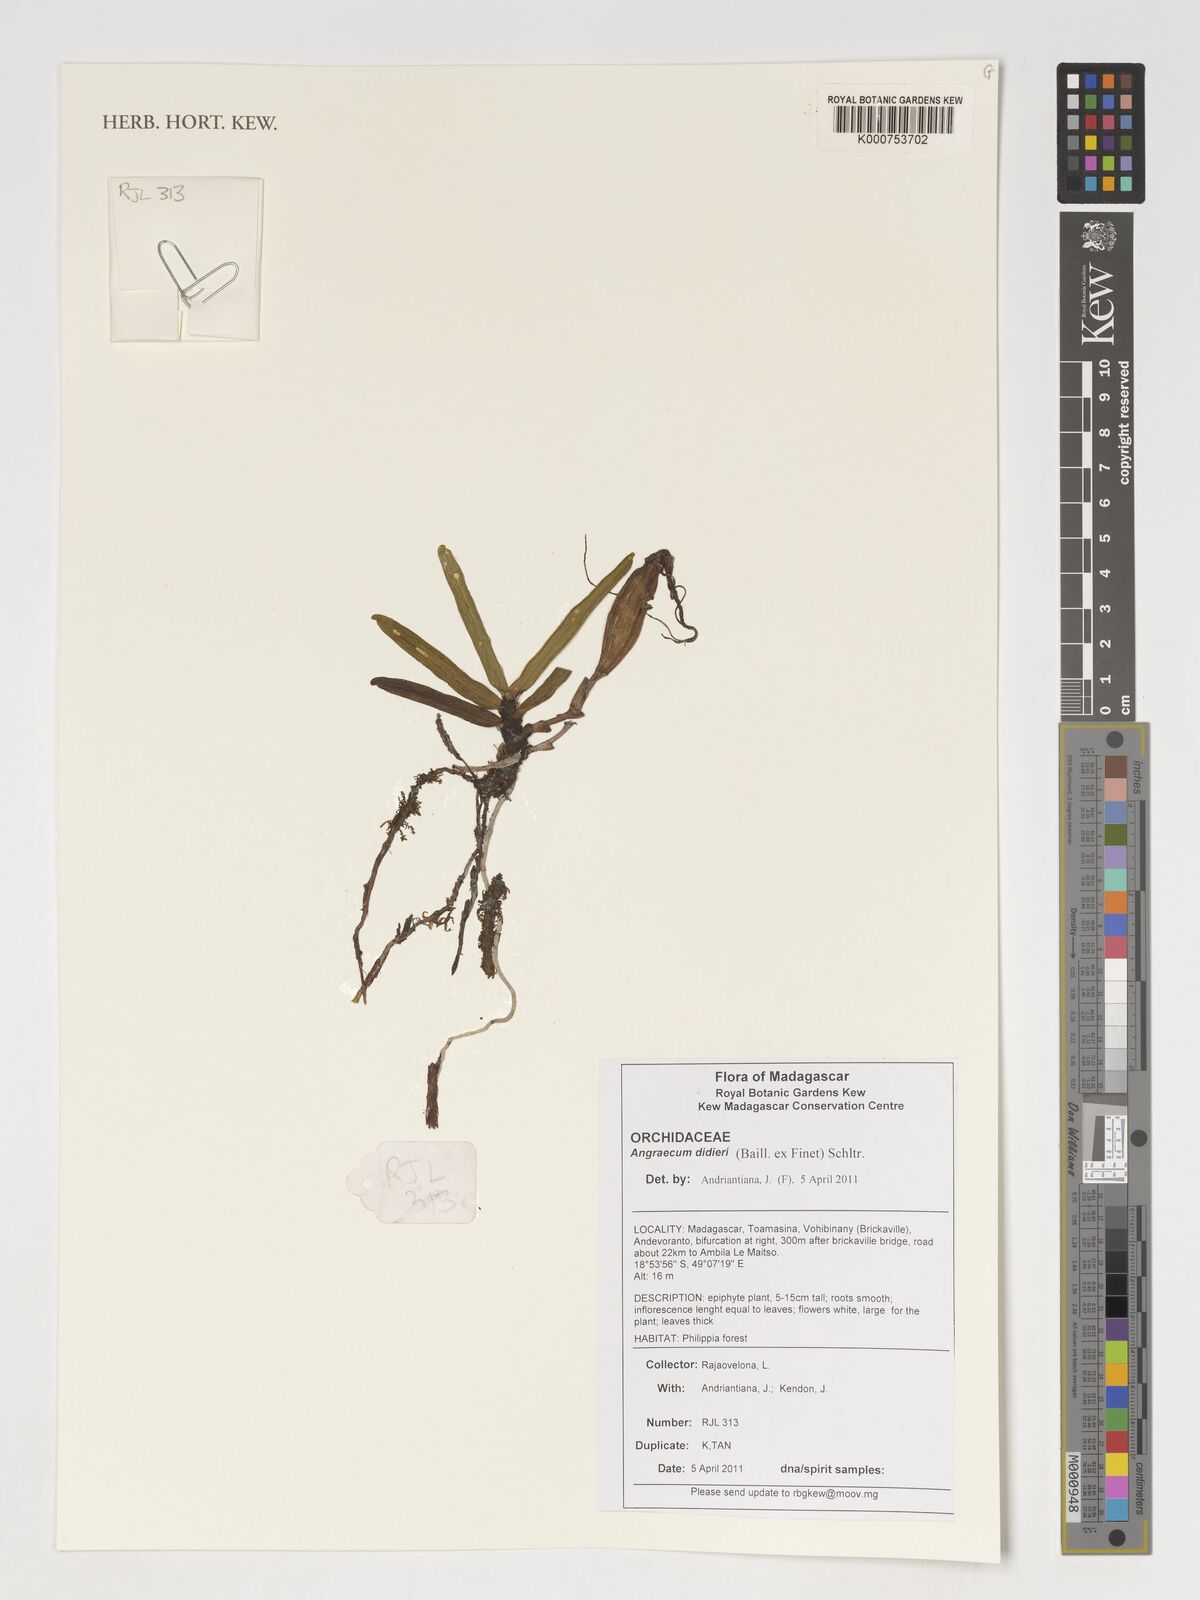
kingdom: Plantae
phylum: Tracheophyta
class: Liliopsida
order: Asparagales
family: Orchidaceae
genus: Angraecum
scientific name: Angraecum didieri
